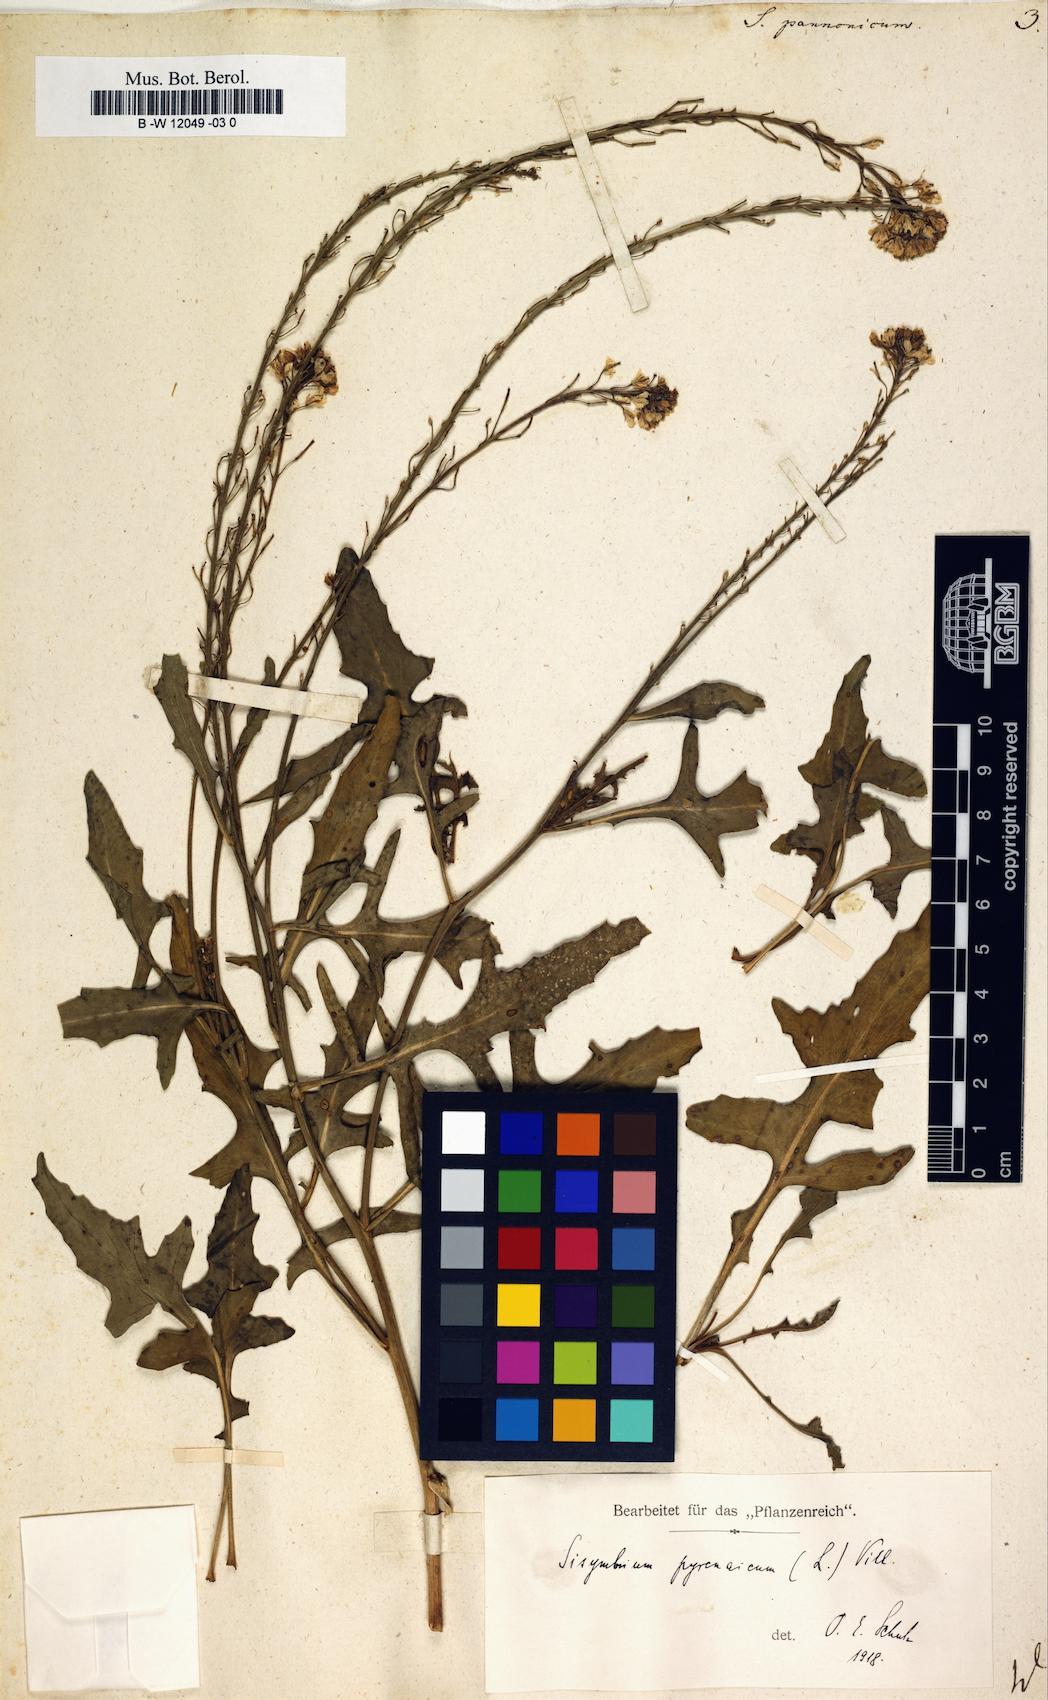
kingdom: Plantae
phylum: Tracheophyta
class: Magnoliopsida
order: Brassicales
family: Brassicaceae
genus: Sisymbrium
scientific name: Sisymbrium
